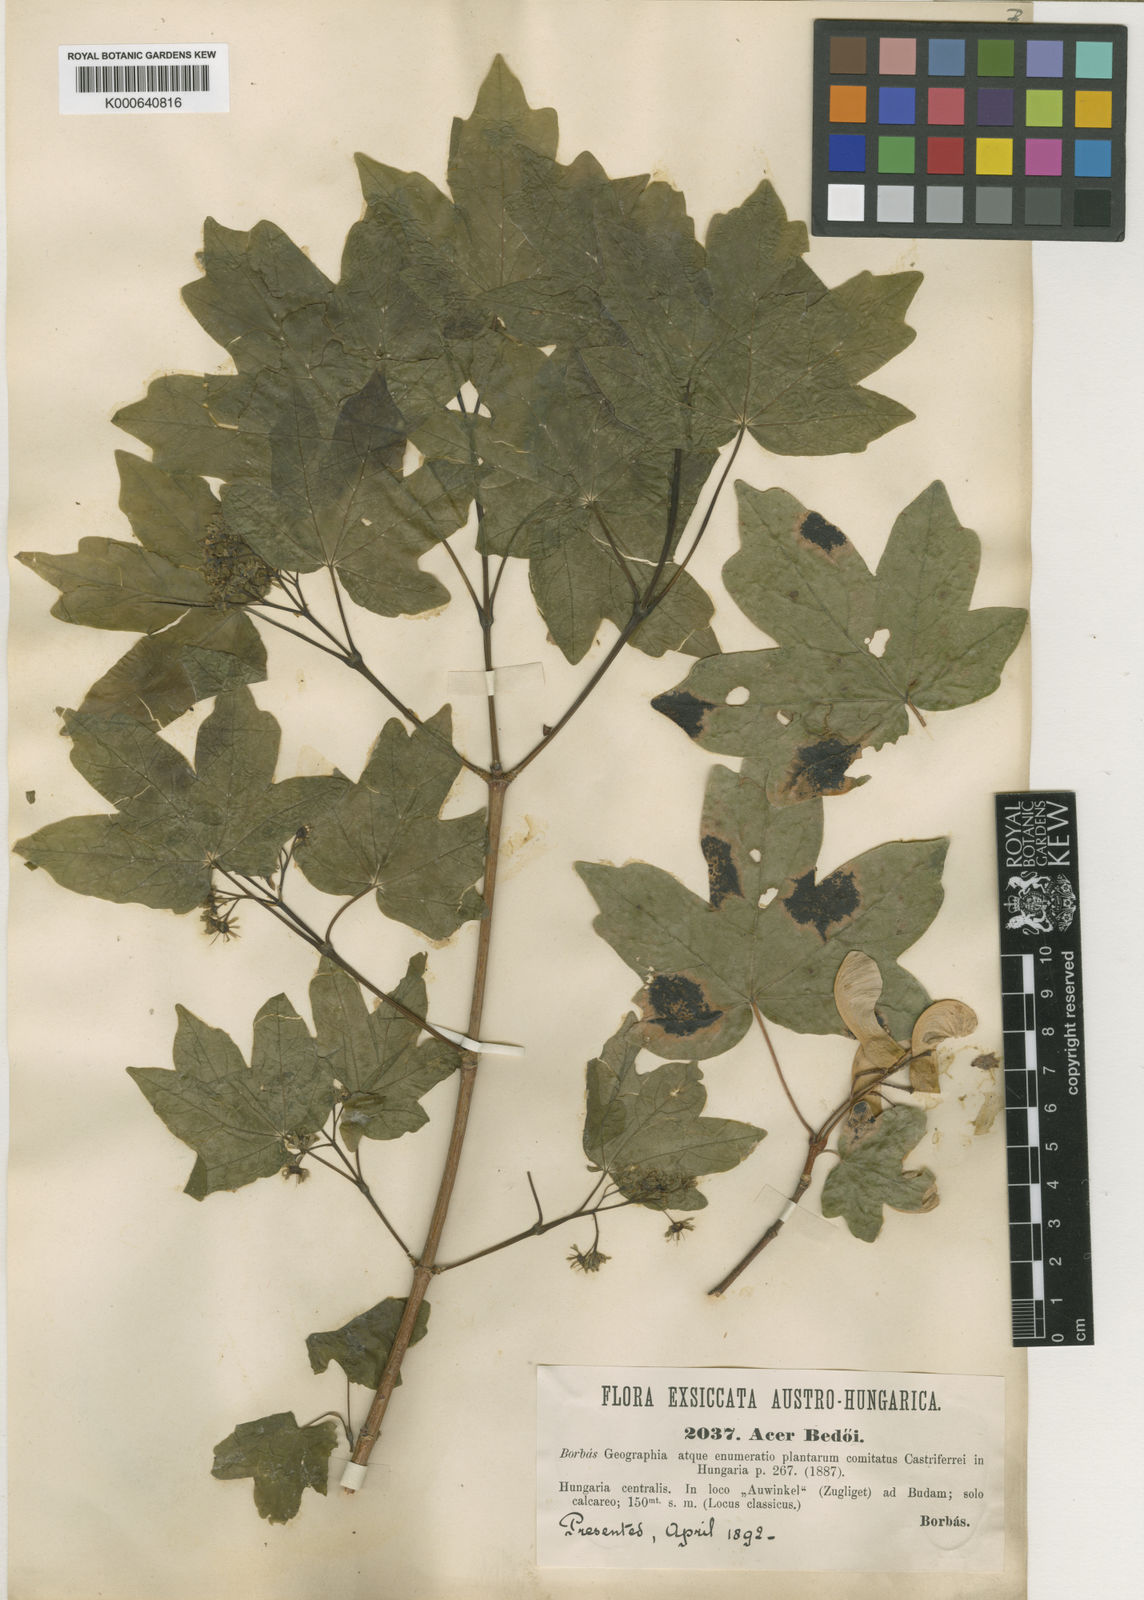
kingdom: Plantae
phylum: Tracheophyta
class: Magnoliopsida
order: Sapindales
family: Sapindaceae
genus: Acer
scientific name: Acer
